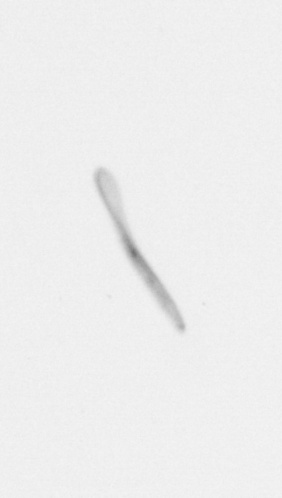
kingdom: Chromista
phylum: Ochrophyta
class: Bacillariophyceae
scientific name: Bacillariophyceae
